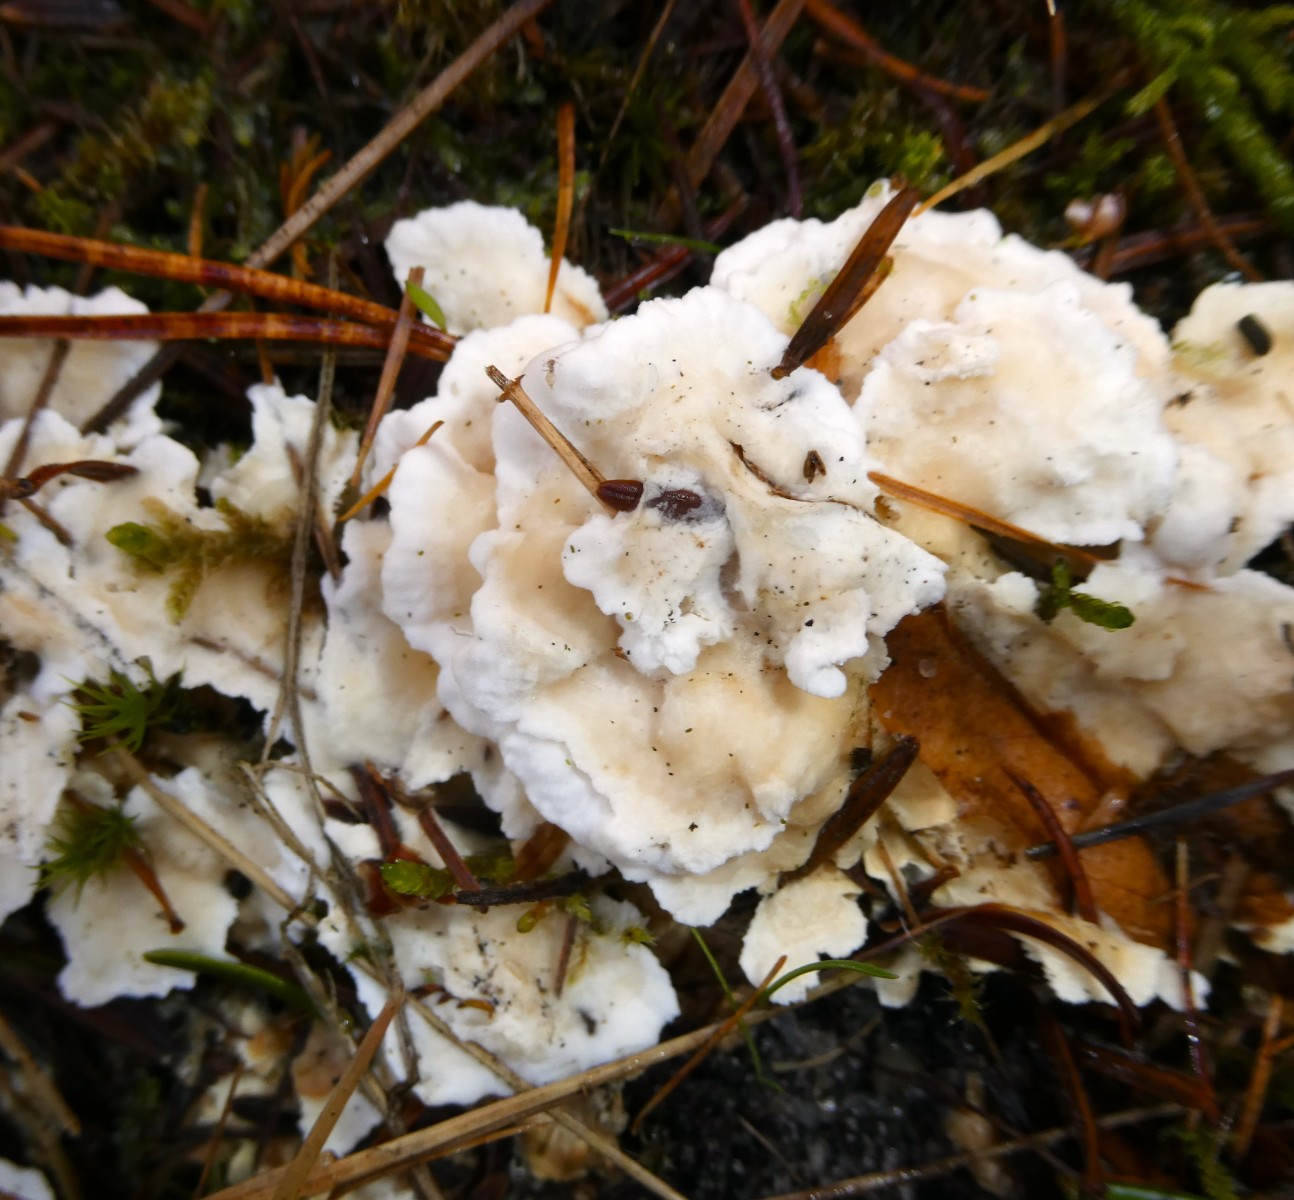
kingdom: Fungi
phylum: Basidiomycota
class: Agaricomycetes
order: Cantharellales
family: Hydnaceae
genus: Sistotrema
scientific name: Sistotrema confluens
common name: stilket kroneskorpe
